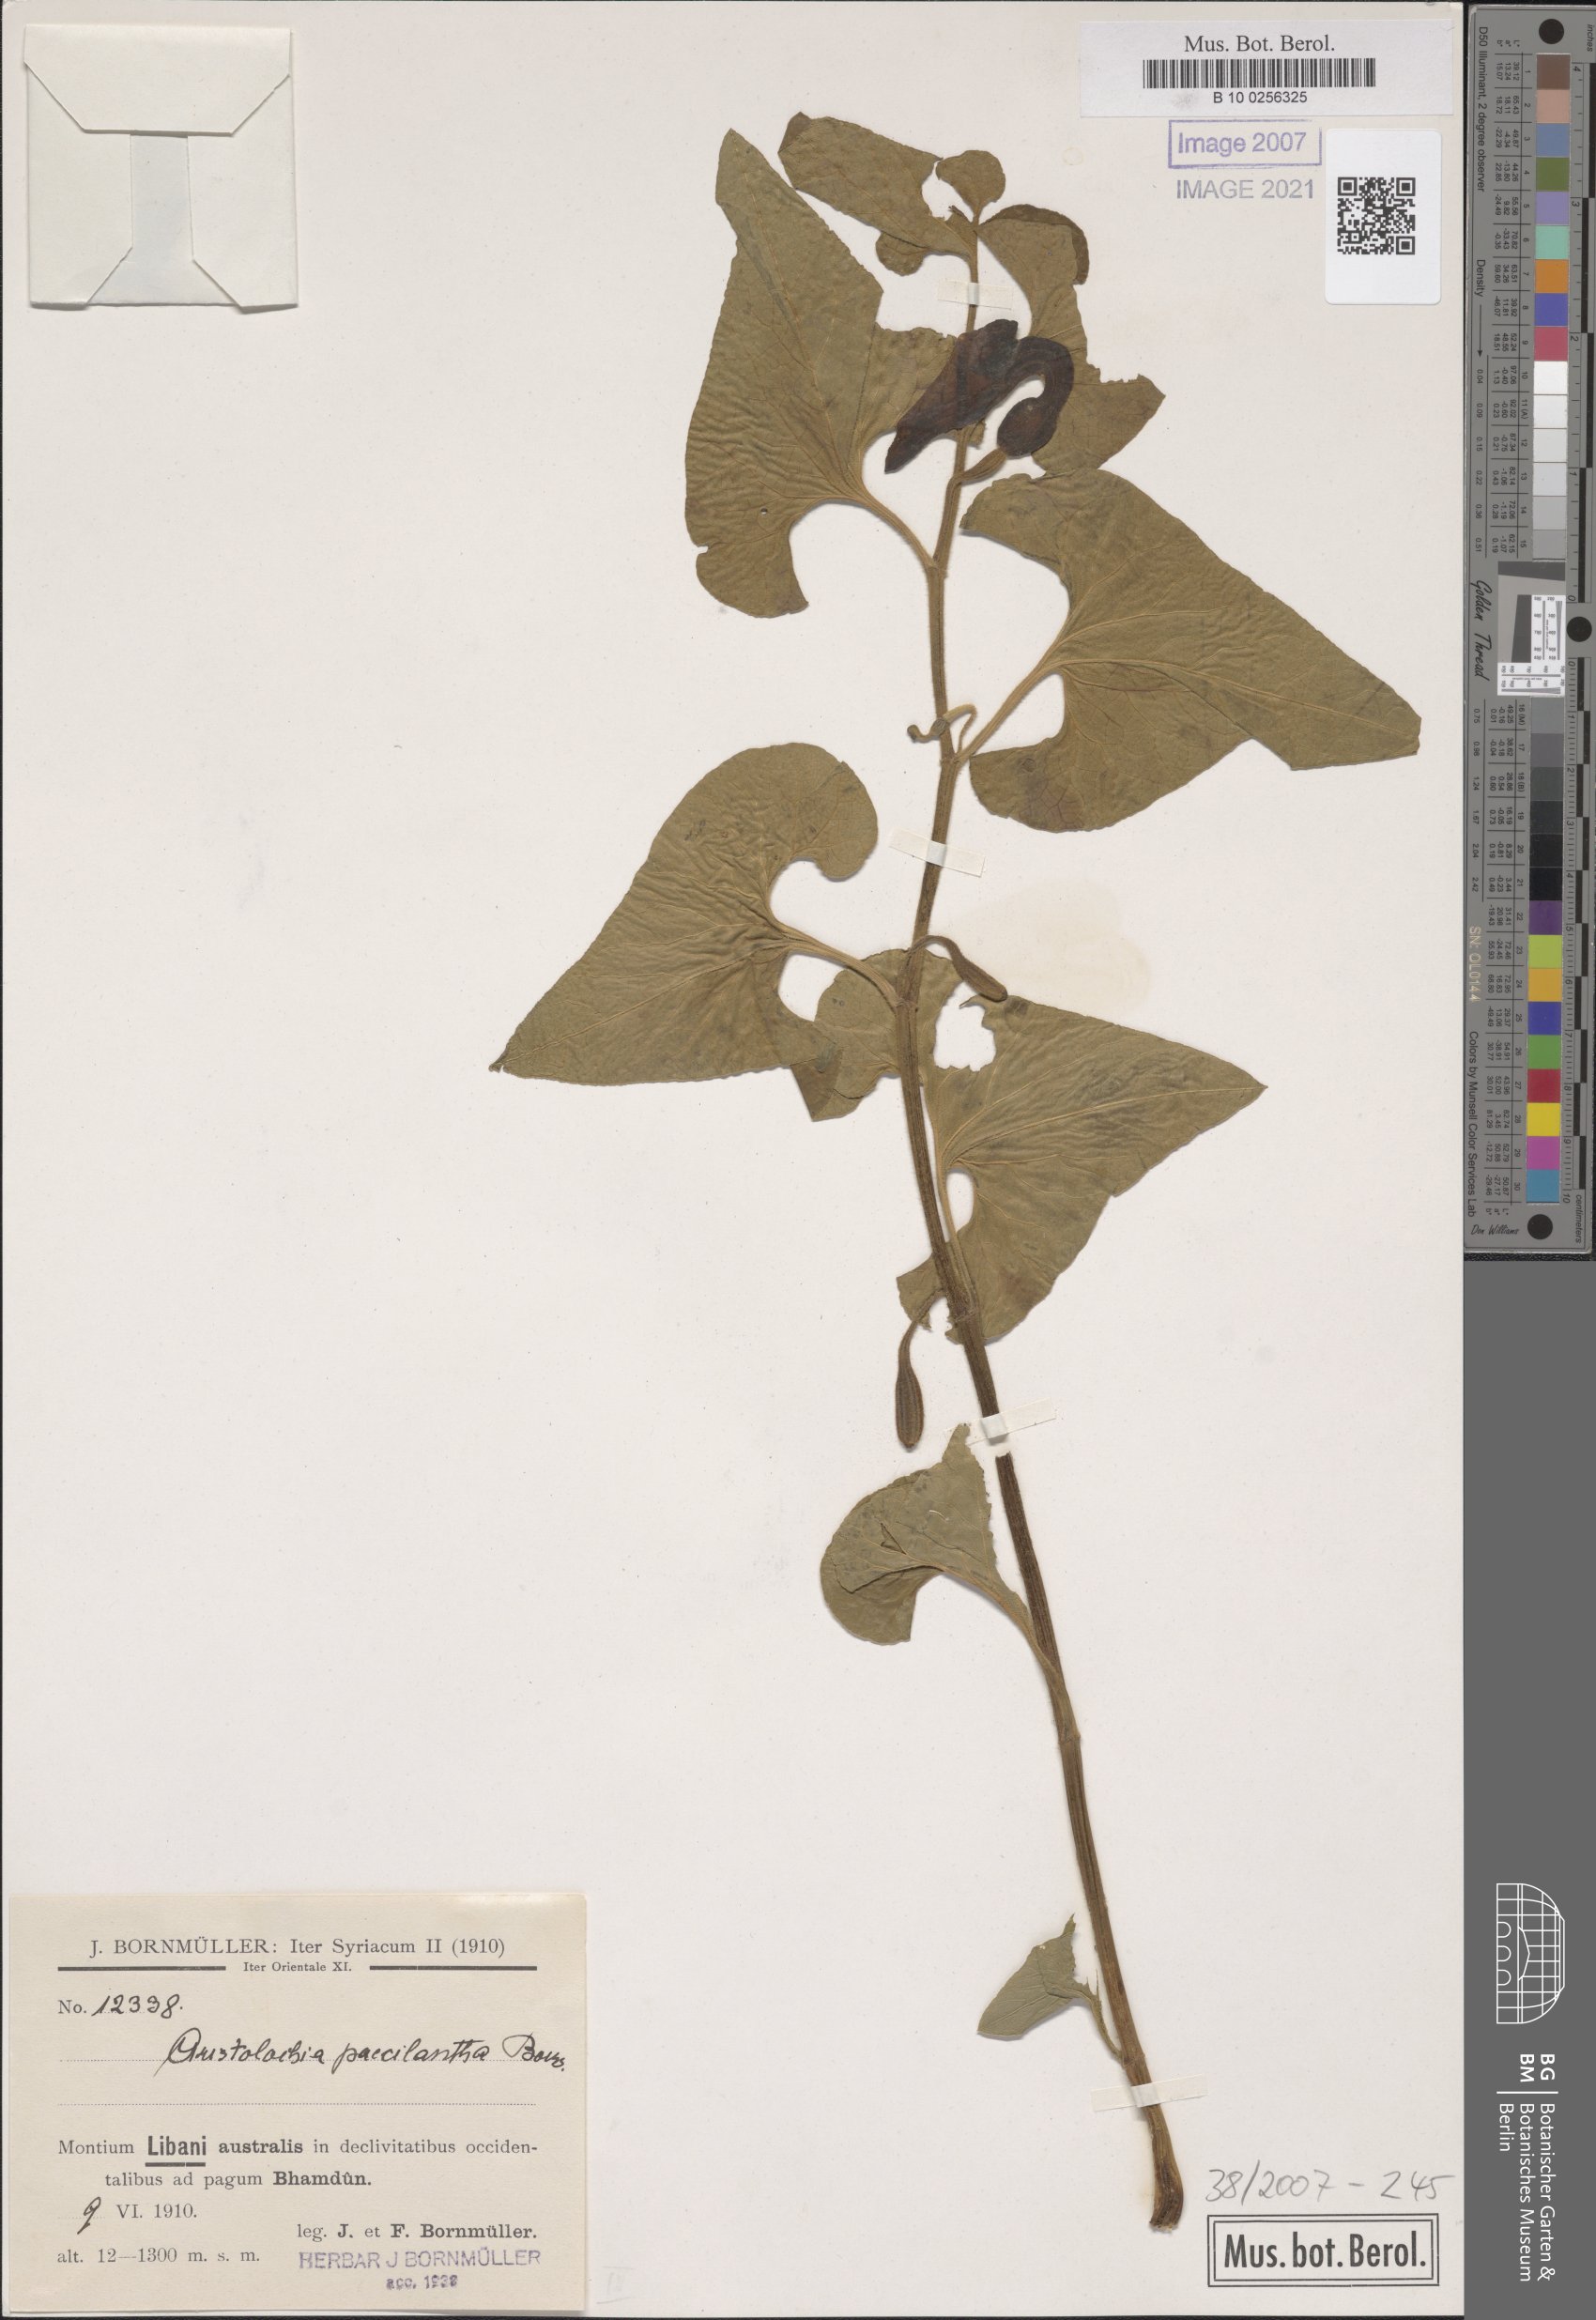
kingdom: Plantae
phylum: Tracheophyta
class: Magnoliopsida
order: Piperales
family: Aristolochiaceae
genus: Aristolochia
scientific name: Aristolochia paecilantha
